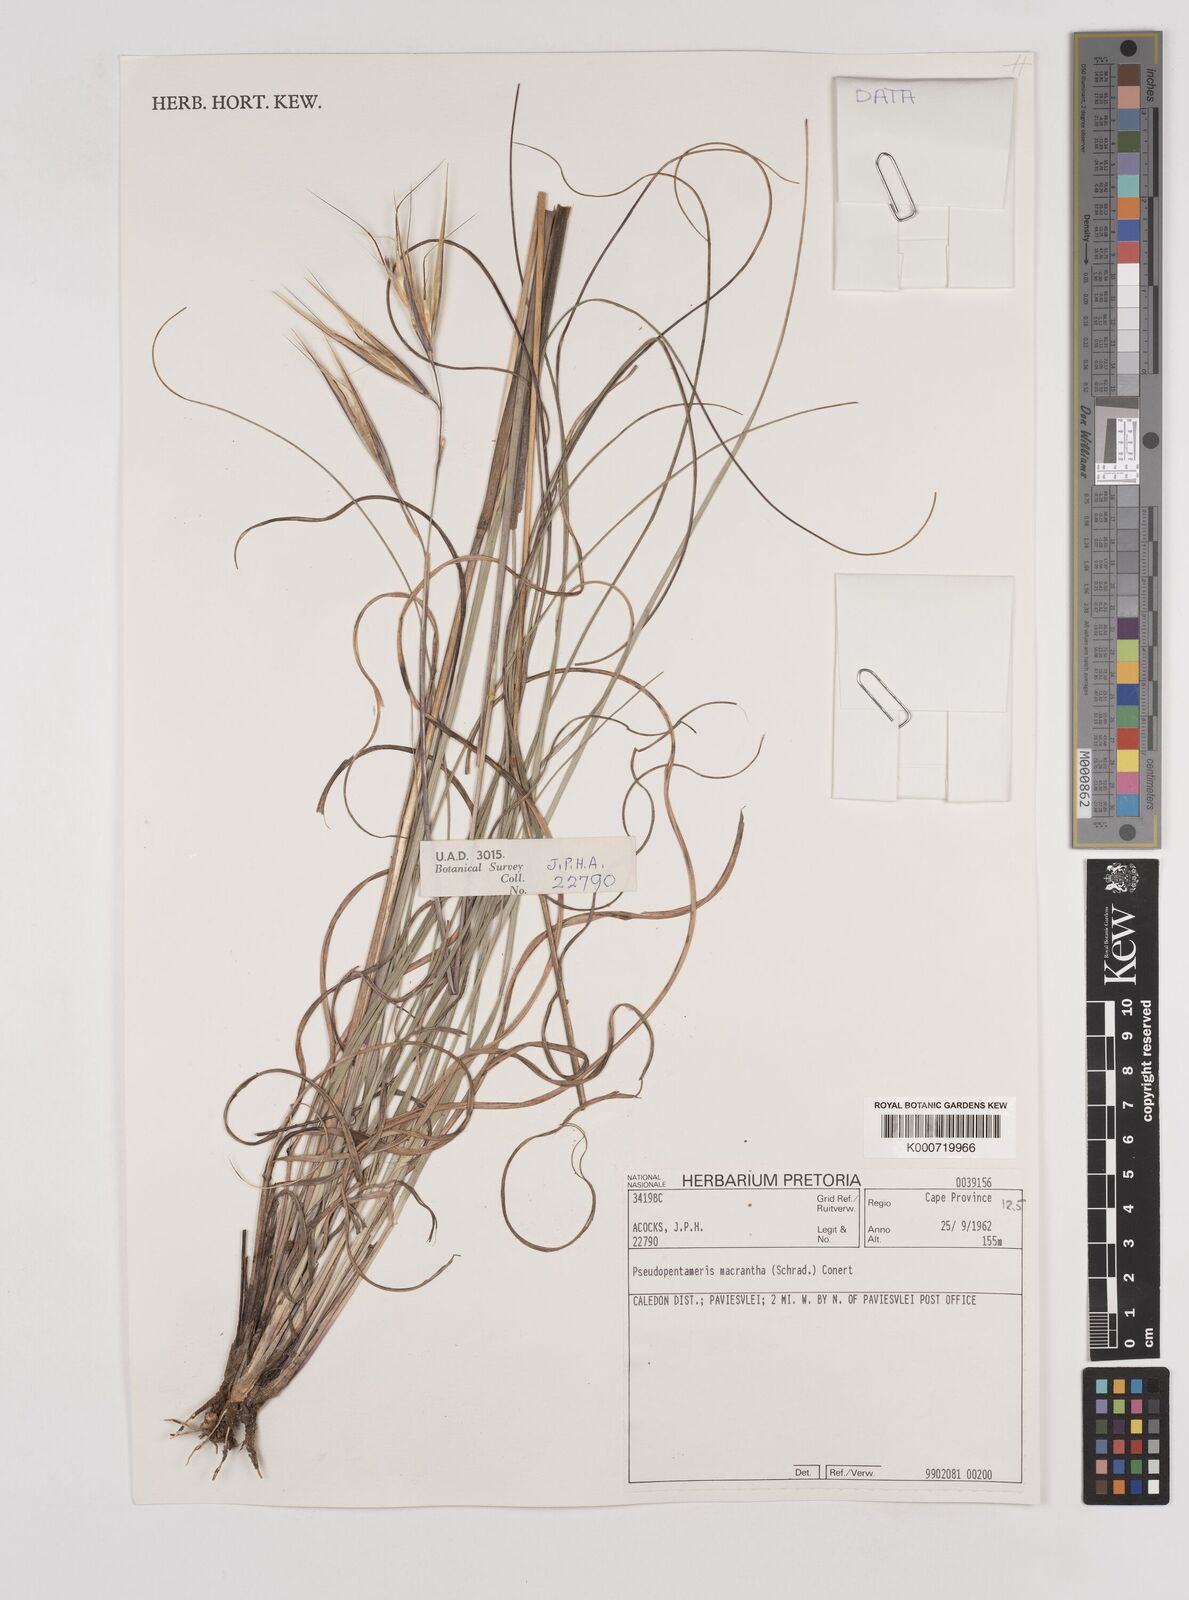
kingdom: Plantae
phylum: Tracheophyta
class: Liliopsida
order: Poales
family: Poaceae
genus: Pseudopentameris
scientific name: Pseudopentameris macrantha
